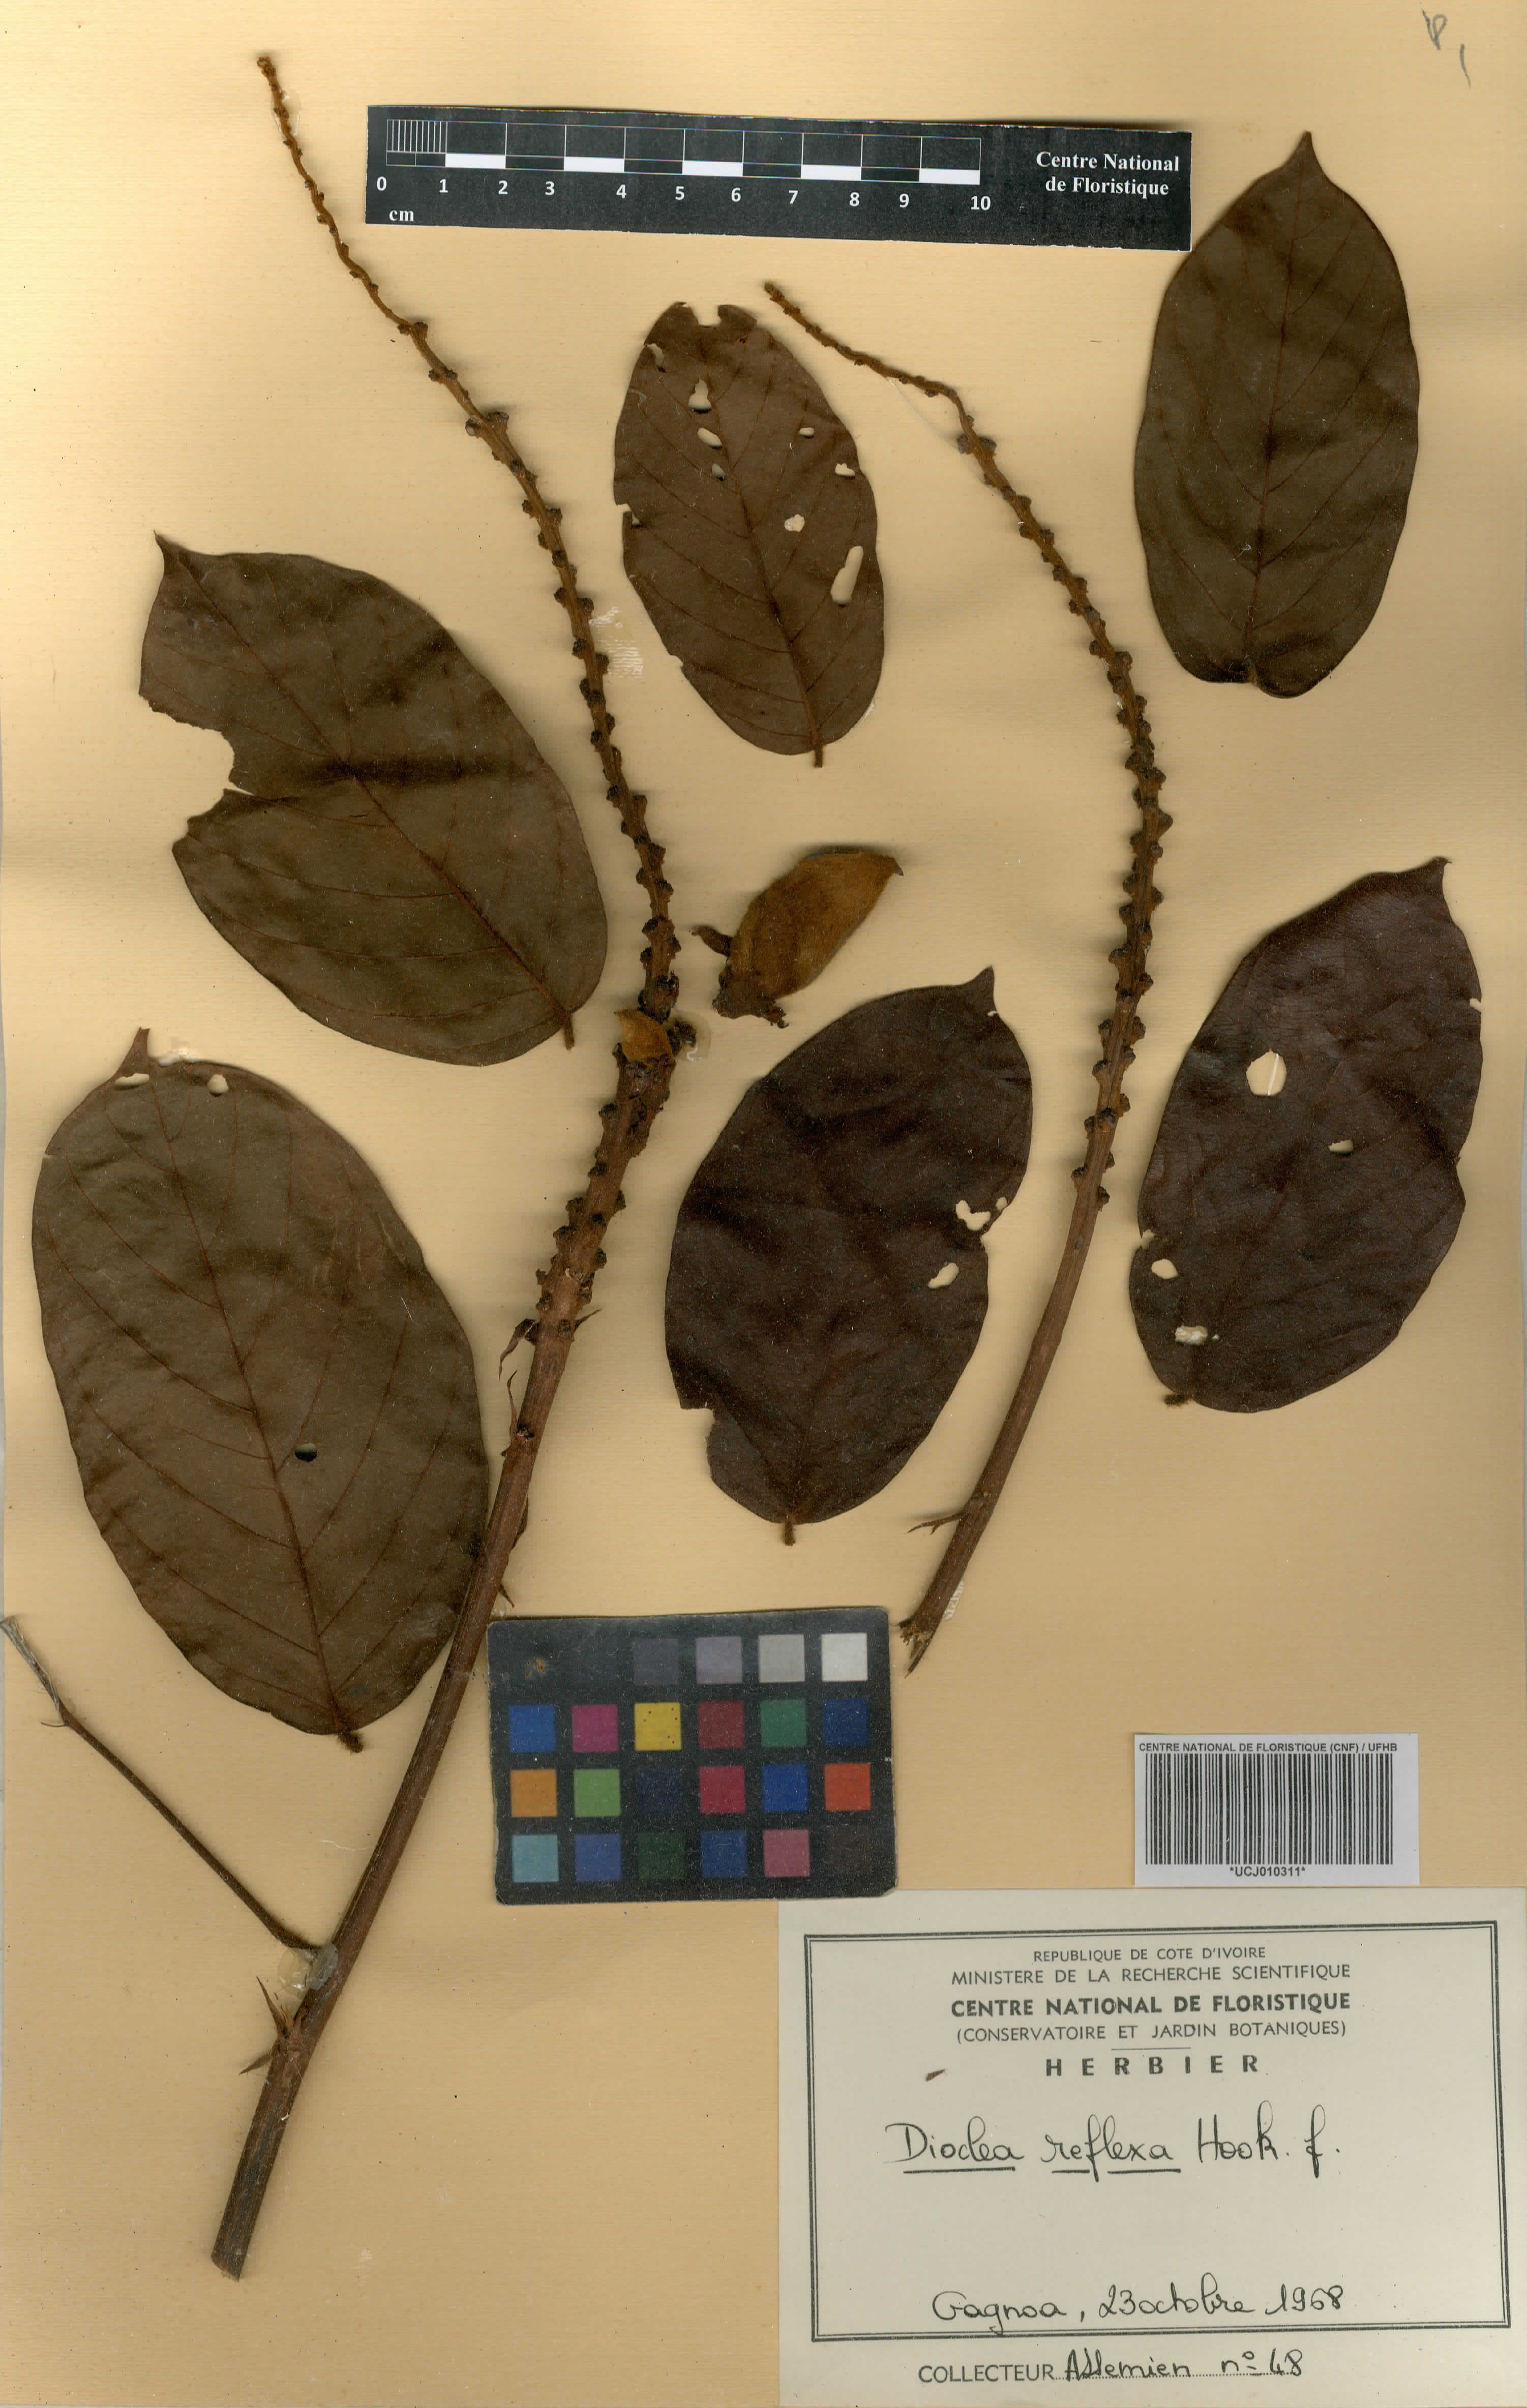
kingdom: Plantae
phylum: Tracheophyta
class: Magnoliopsida
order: Fabales
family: Fabaceae
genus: Macropsychanthus
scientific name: Macropsychanthus comosus
